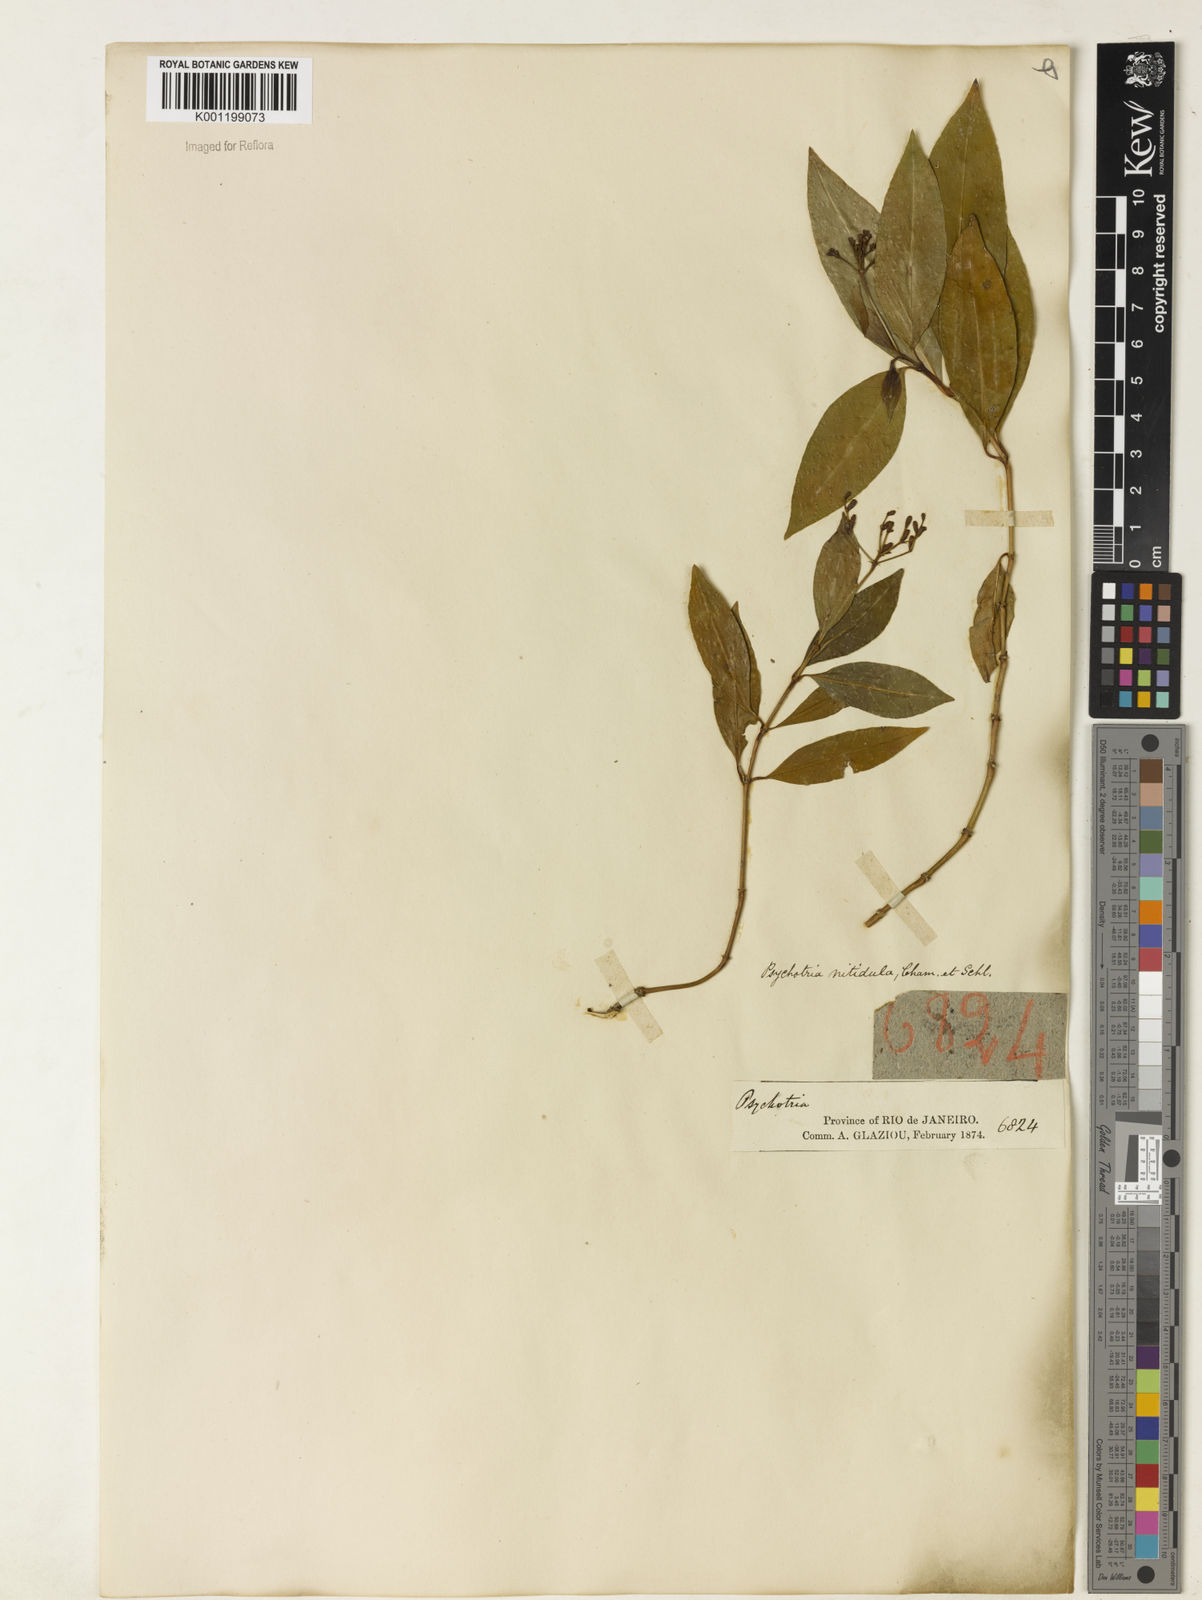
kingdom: Plantae
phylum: Tracheophyta
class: Magnoliopsida
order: Gentianales
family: Rubiaceae
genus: Psychotria
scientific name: Psychotria leiocarpa
